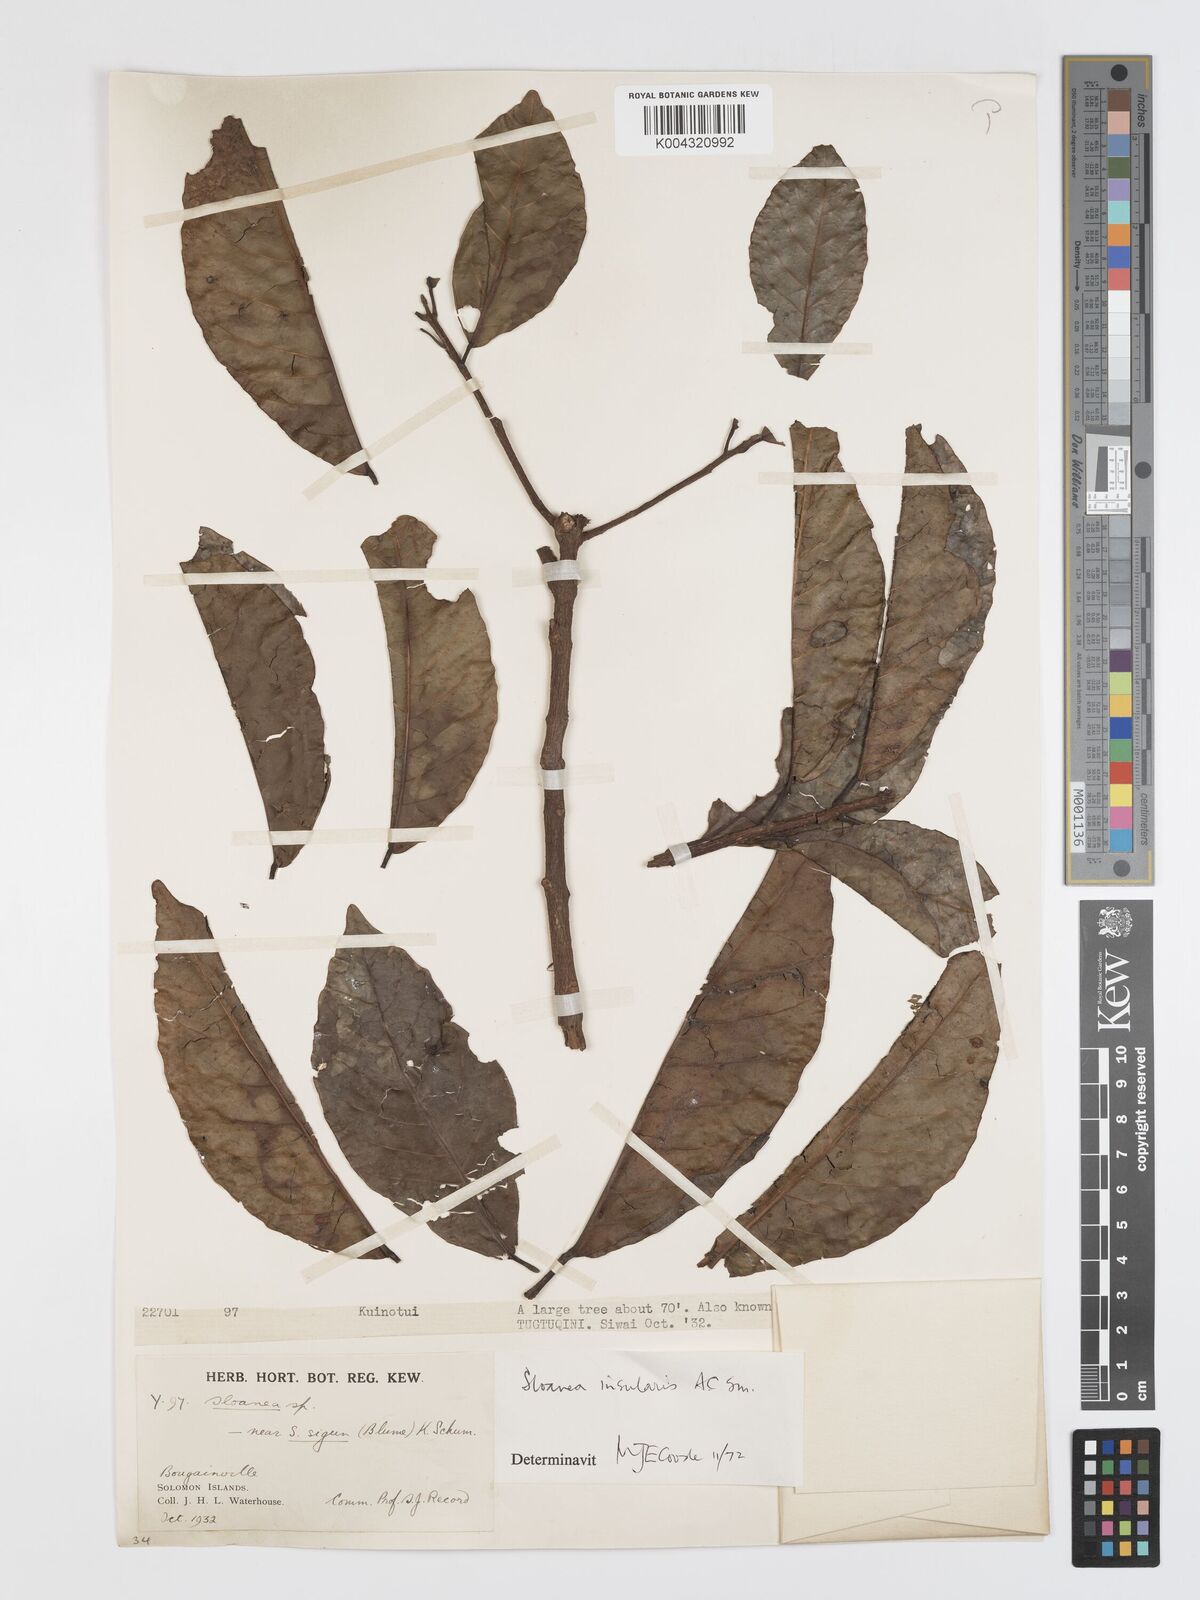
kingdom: Plantae
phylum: Tracheophyta
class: Magnoliopsida
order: Oxalidales
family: Elaeocarpaceae
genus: Sloanea
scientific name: Sloanea insularis
